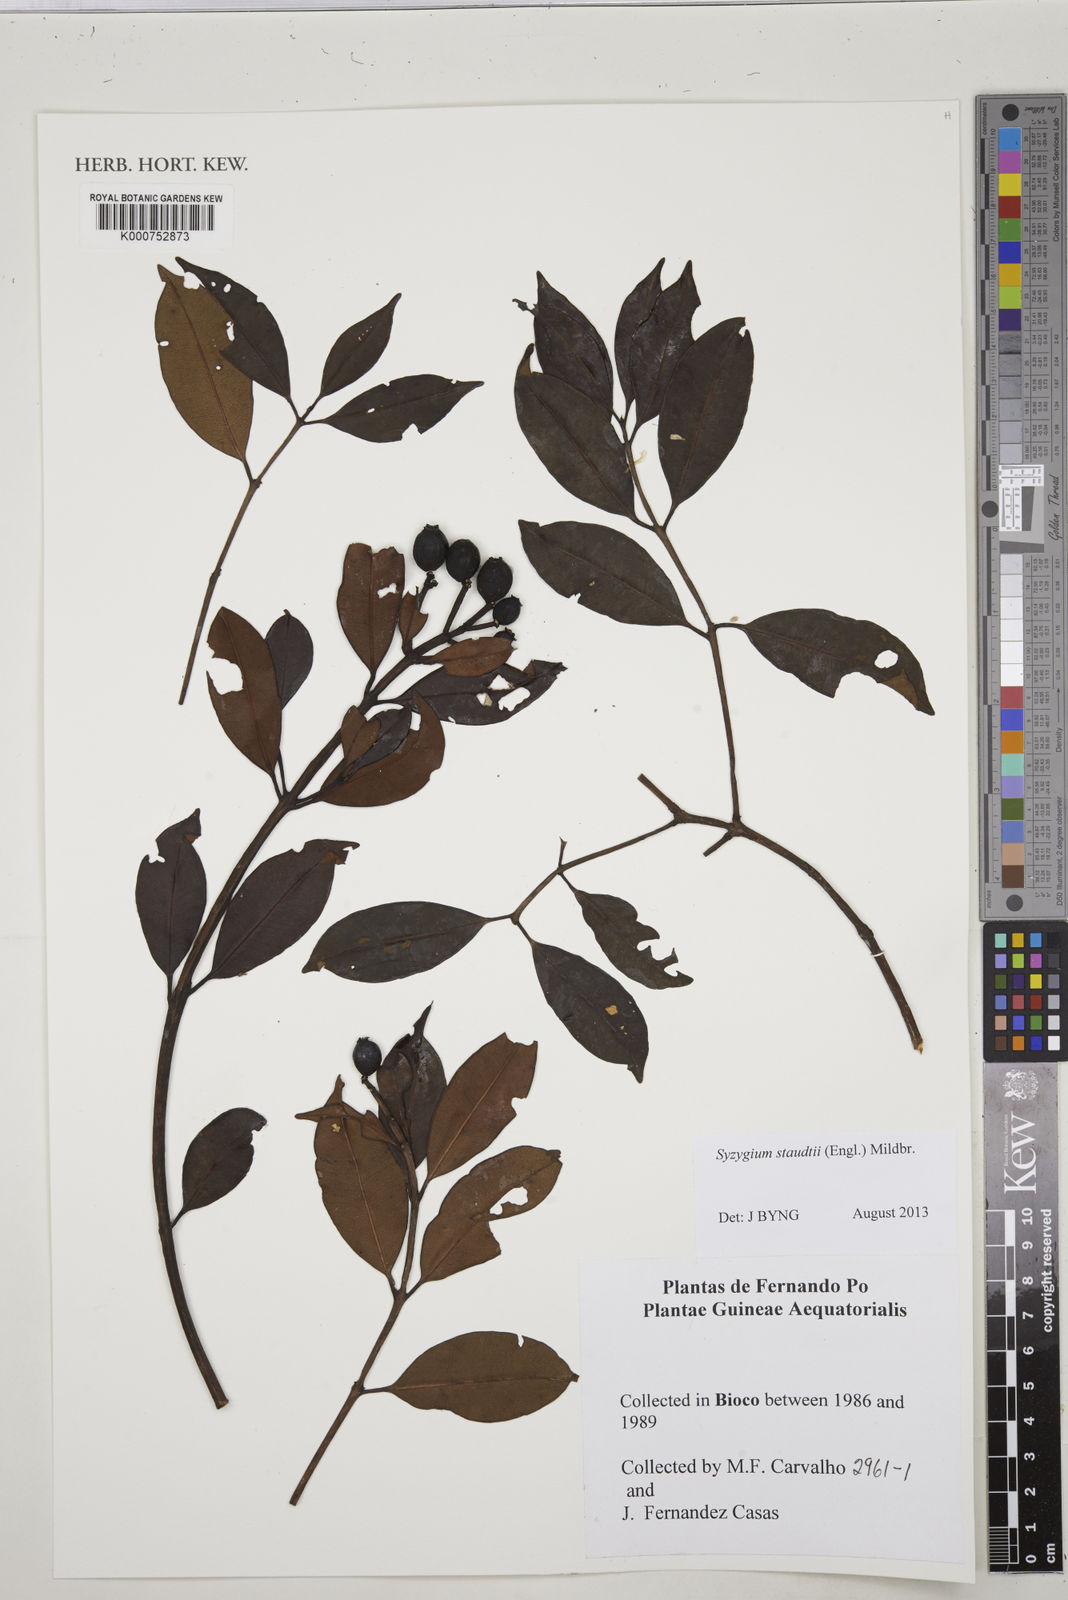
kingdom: Plantae
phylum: Tracheophyta
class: Magnoliopsida
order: Myrtales
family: Myrtaceae
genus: Syzygium
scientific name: Syzygium staudtii
